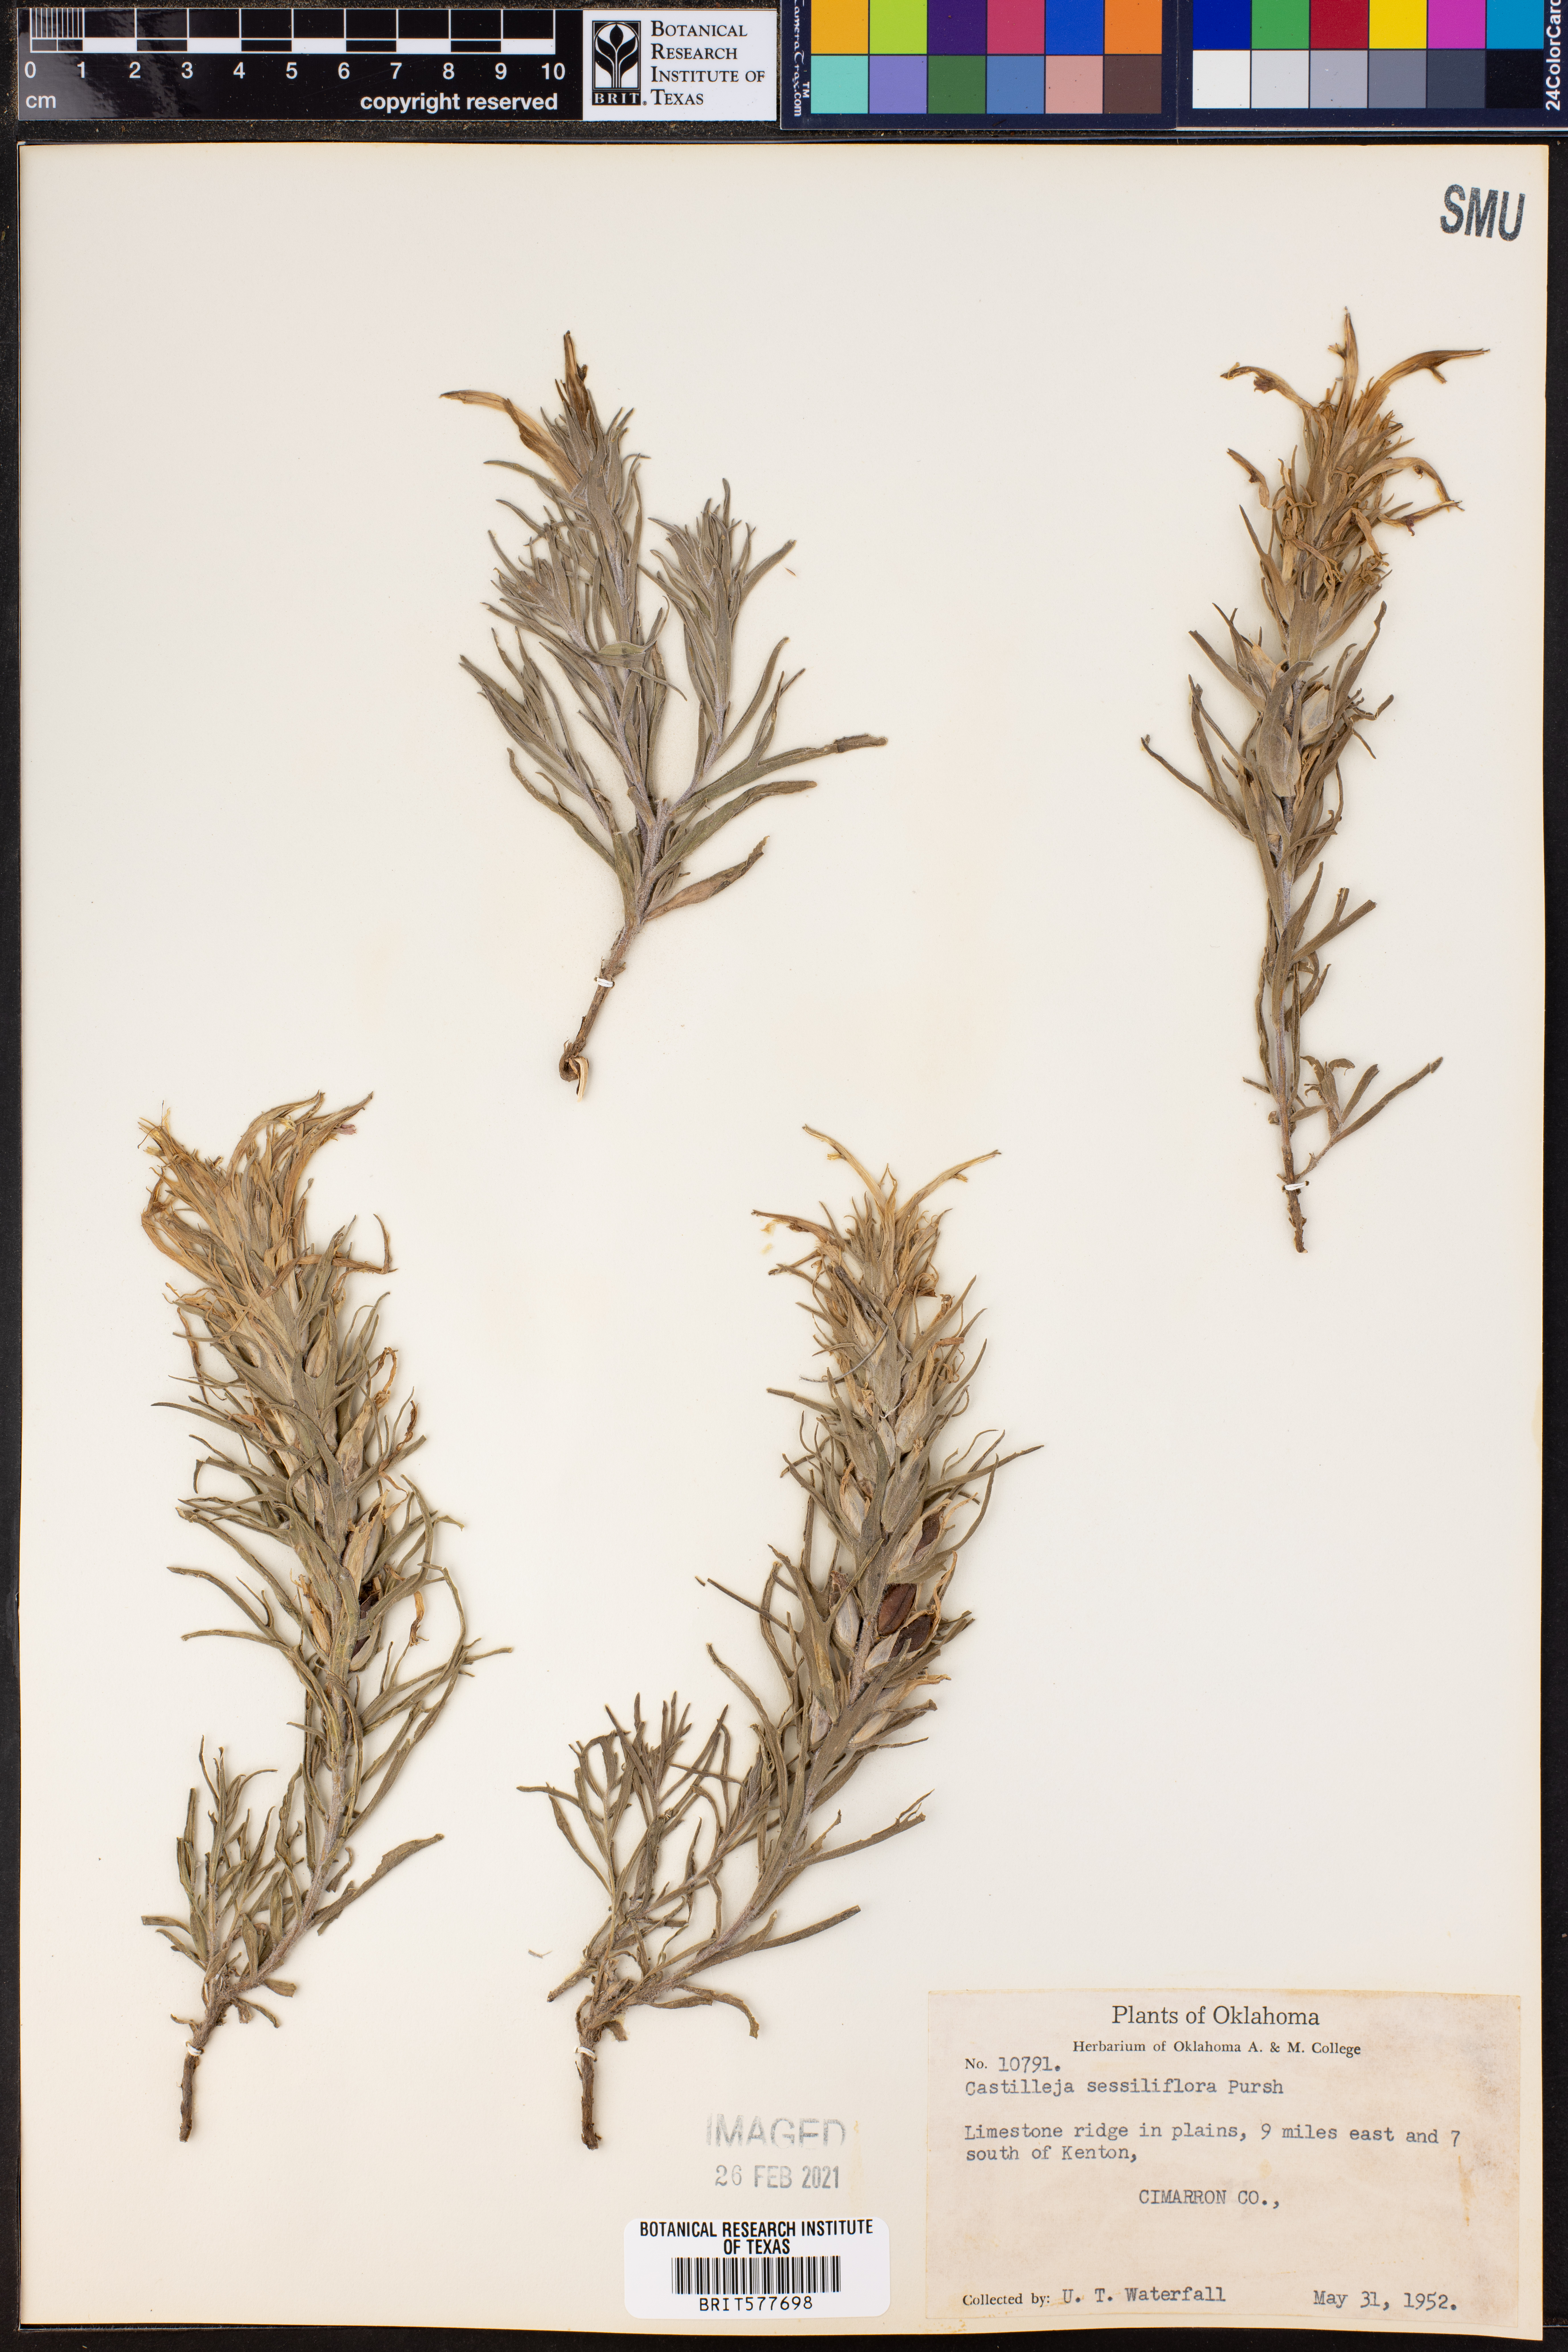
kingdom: Plantae
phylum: Tracheophyta
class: Magnoliopsida
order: Lamiales
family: Orobanchaceae
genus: Castilleja
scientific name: Castilleja sessiliflora
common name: Downy paintbrush
